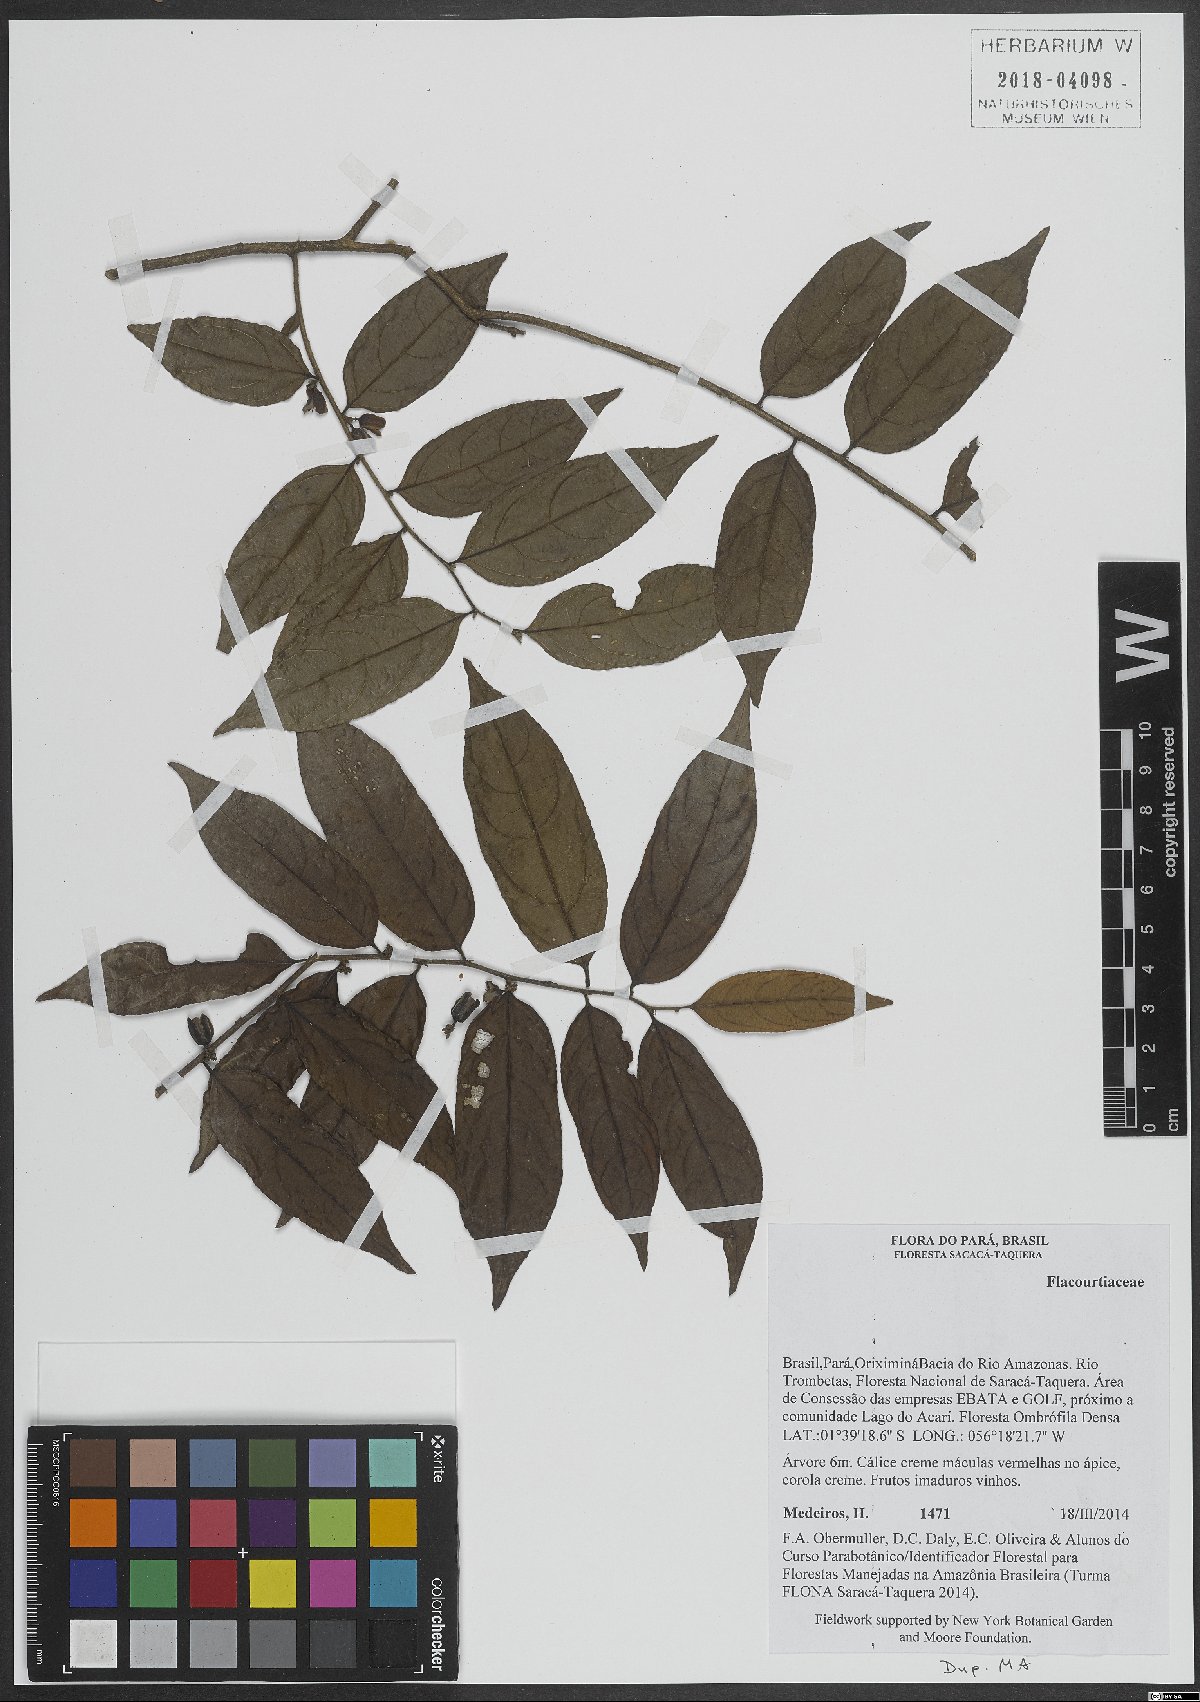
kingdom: Plantae
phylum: Tracheophyta
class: Magnoliopsida
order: Malpighiales
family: Flacourtiaceae
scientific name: Flacourtiaceae
